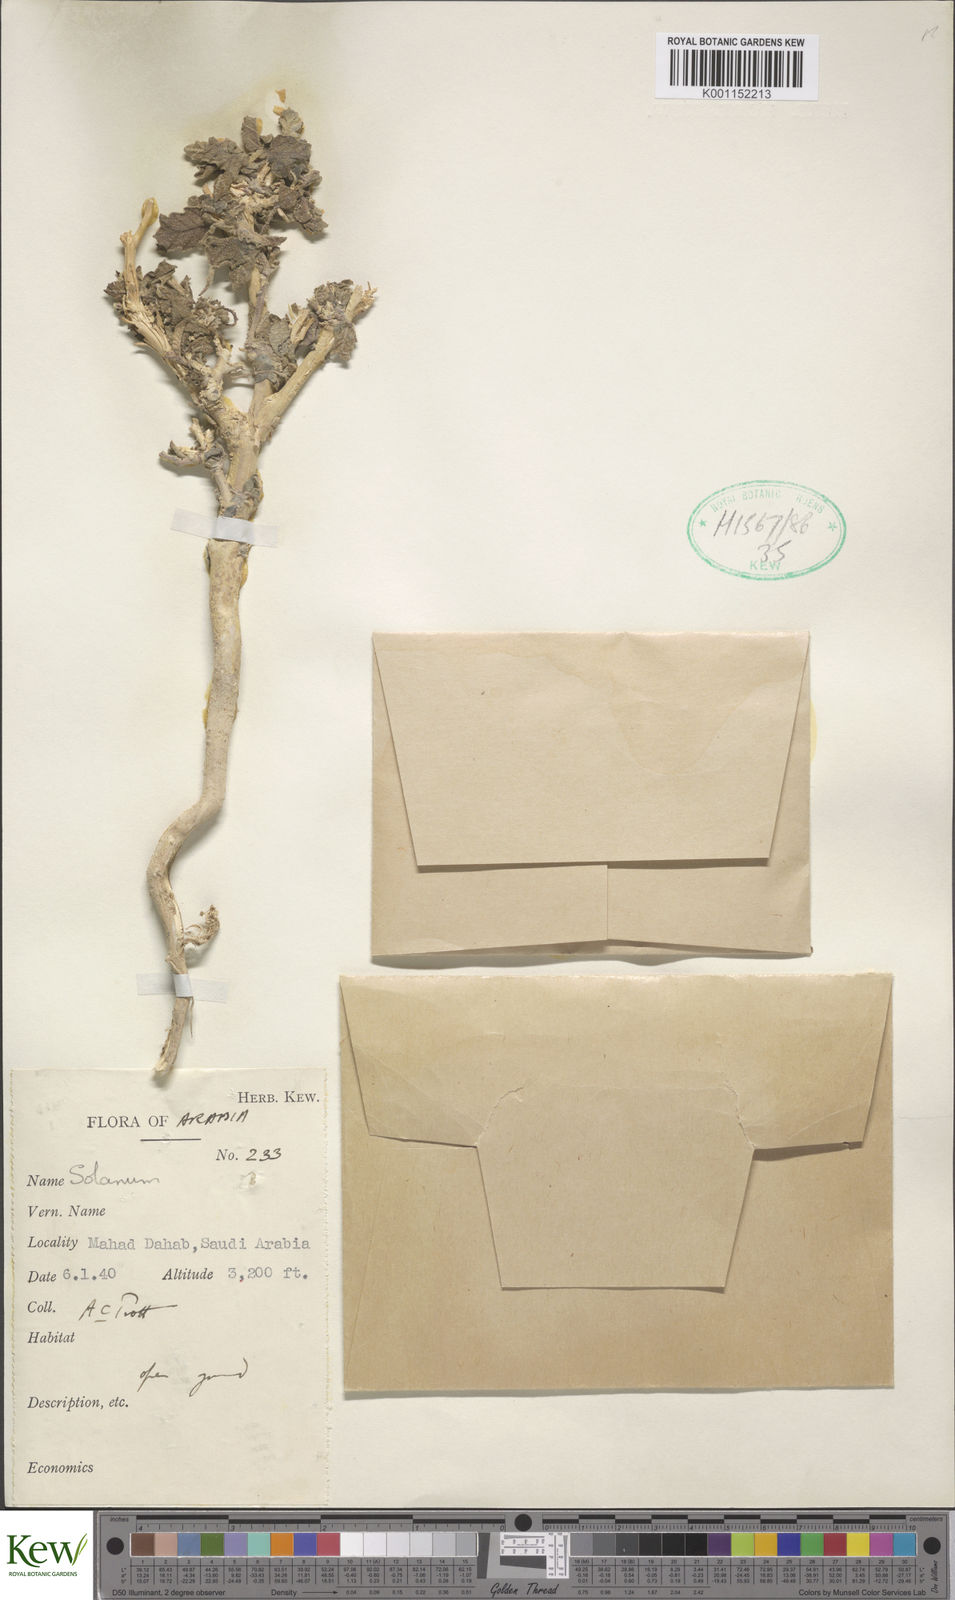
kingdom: Plantae
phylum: Tracheophyta
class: Magnoliopsida
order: Solanales
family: Solanaceae
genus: Solanum
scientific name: Solanum
